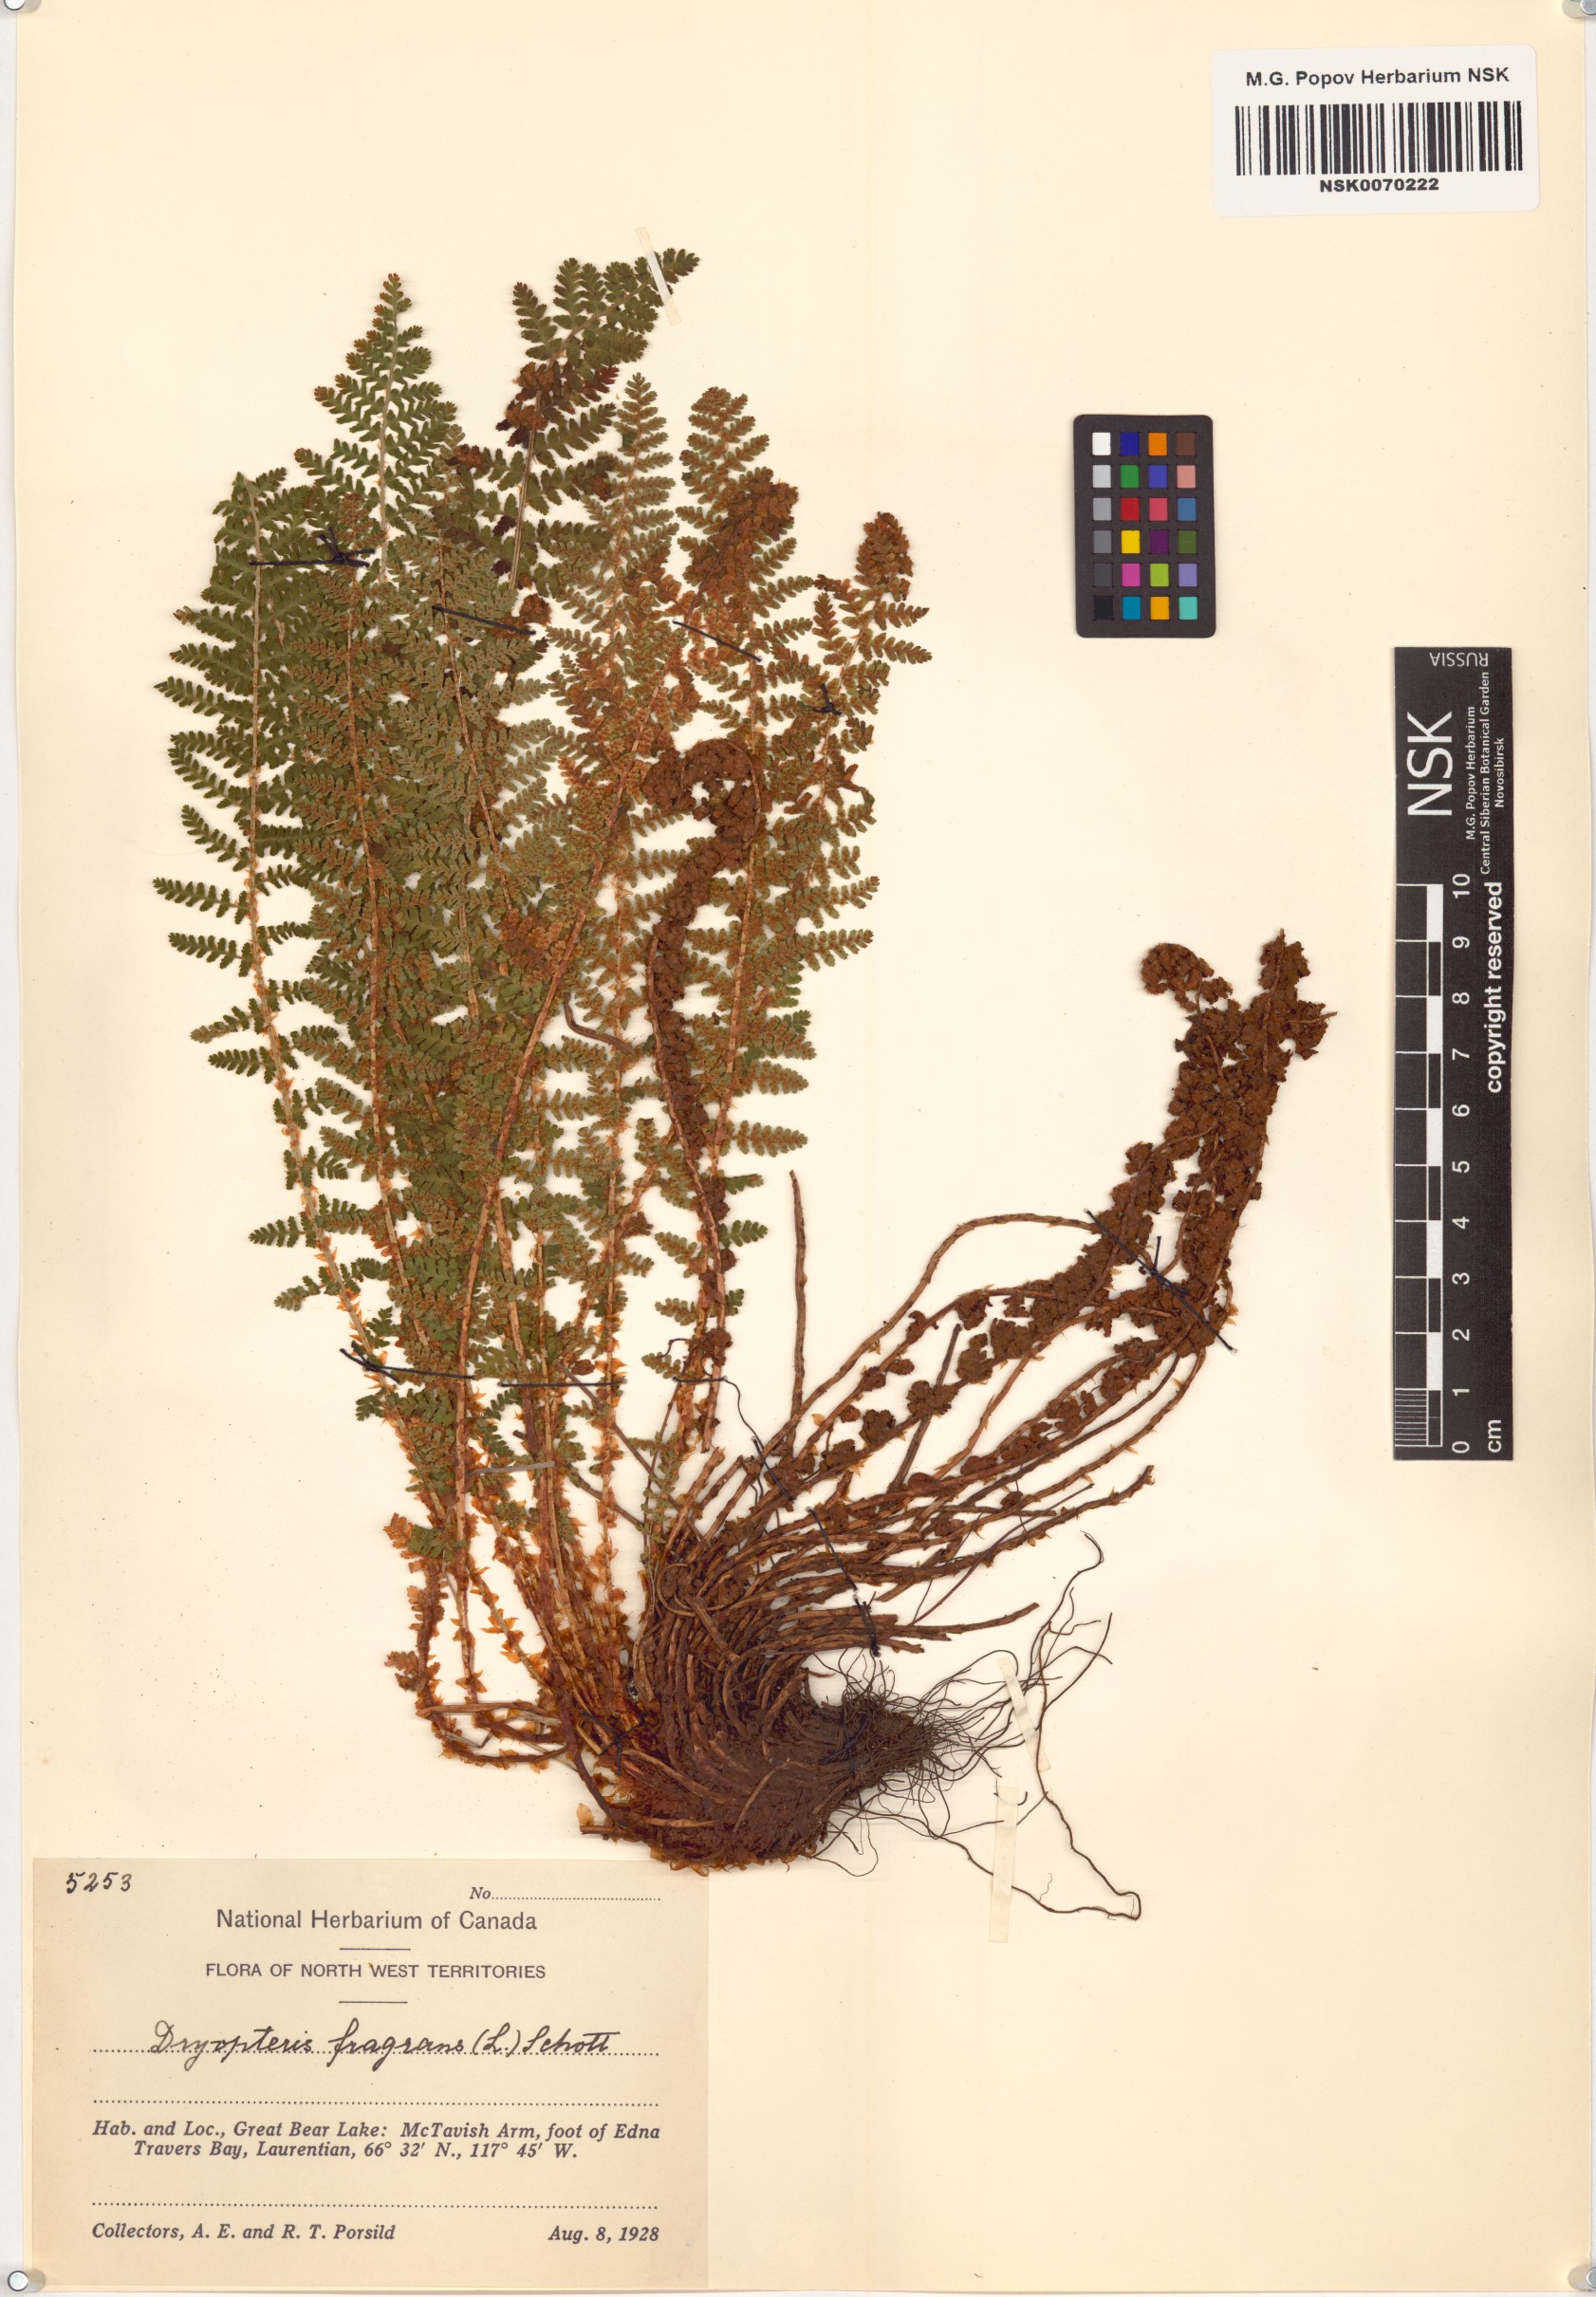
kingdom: Plantae
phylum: Tracheophyta
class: Polypodiopsida
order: Polypodiales
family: Dryopteridaceae
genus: Dryopteris
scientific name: Dryopteris fragrans
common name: Fragrant wood fern
